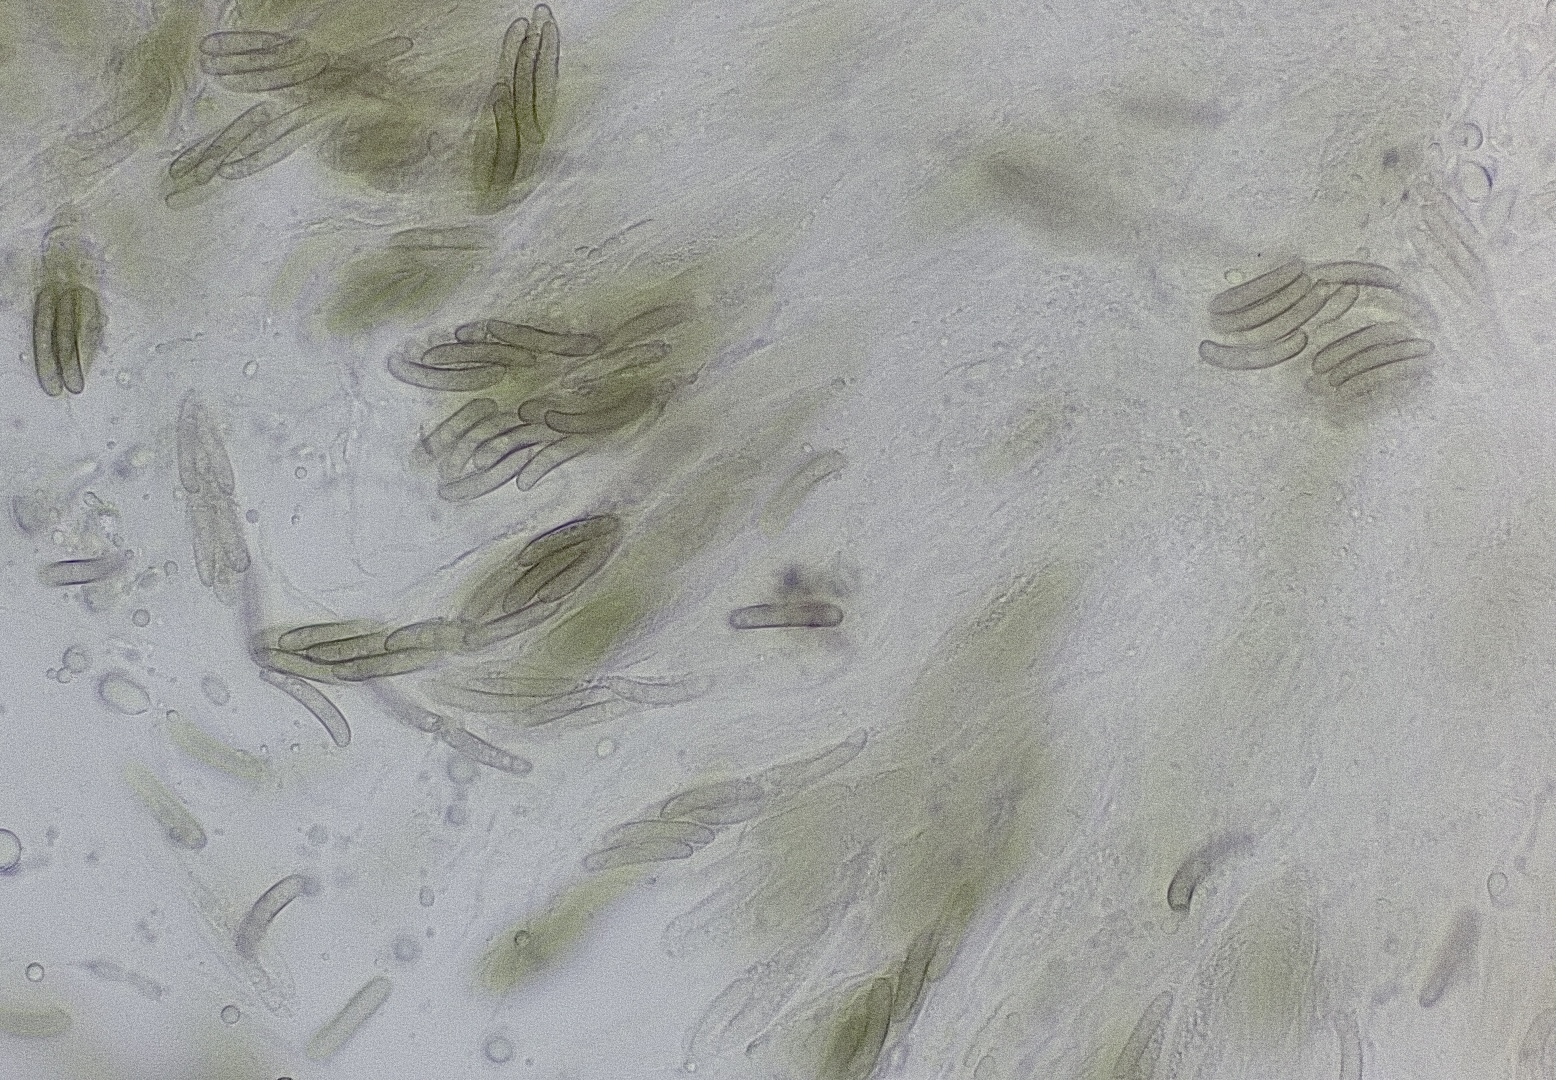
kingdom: Fungi
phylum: Ascomycota
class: Sordariomycetes
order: Coronophorales
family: Nitschkiaceae
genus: Enchnoa
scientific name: Enchnoa infernalis
